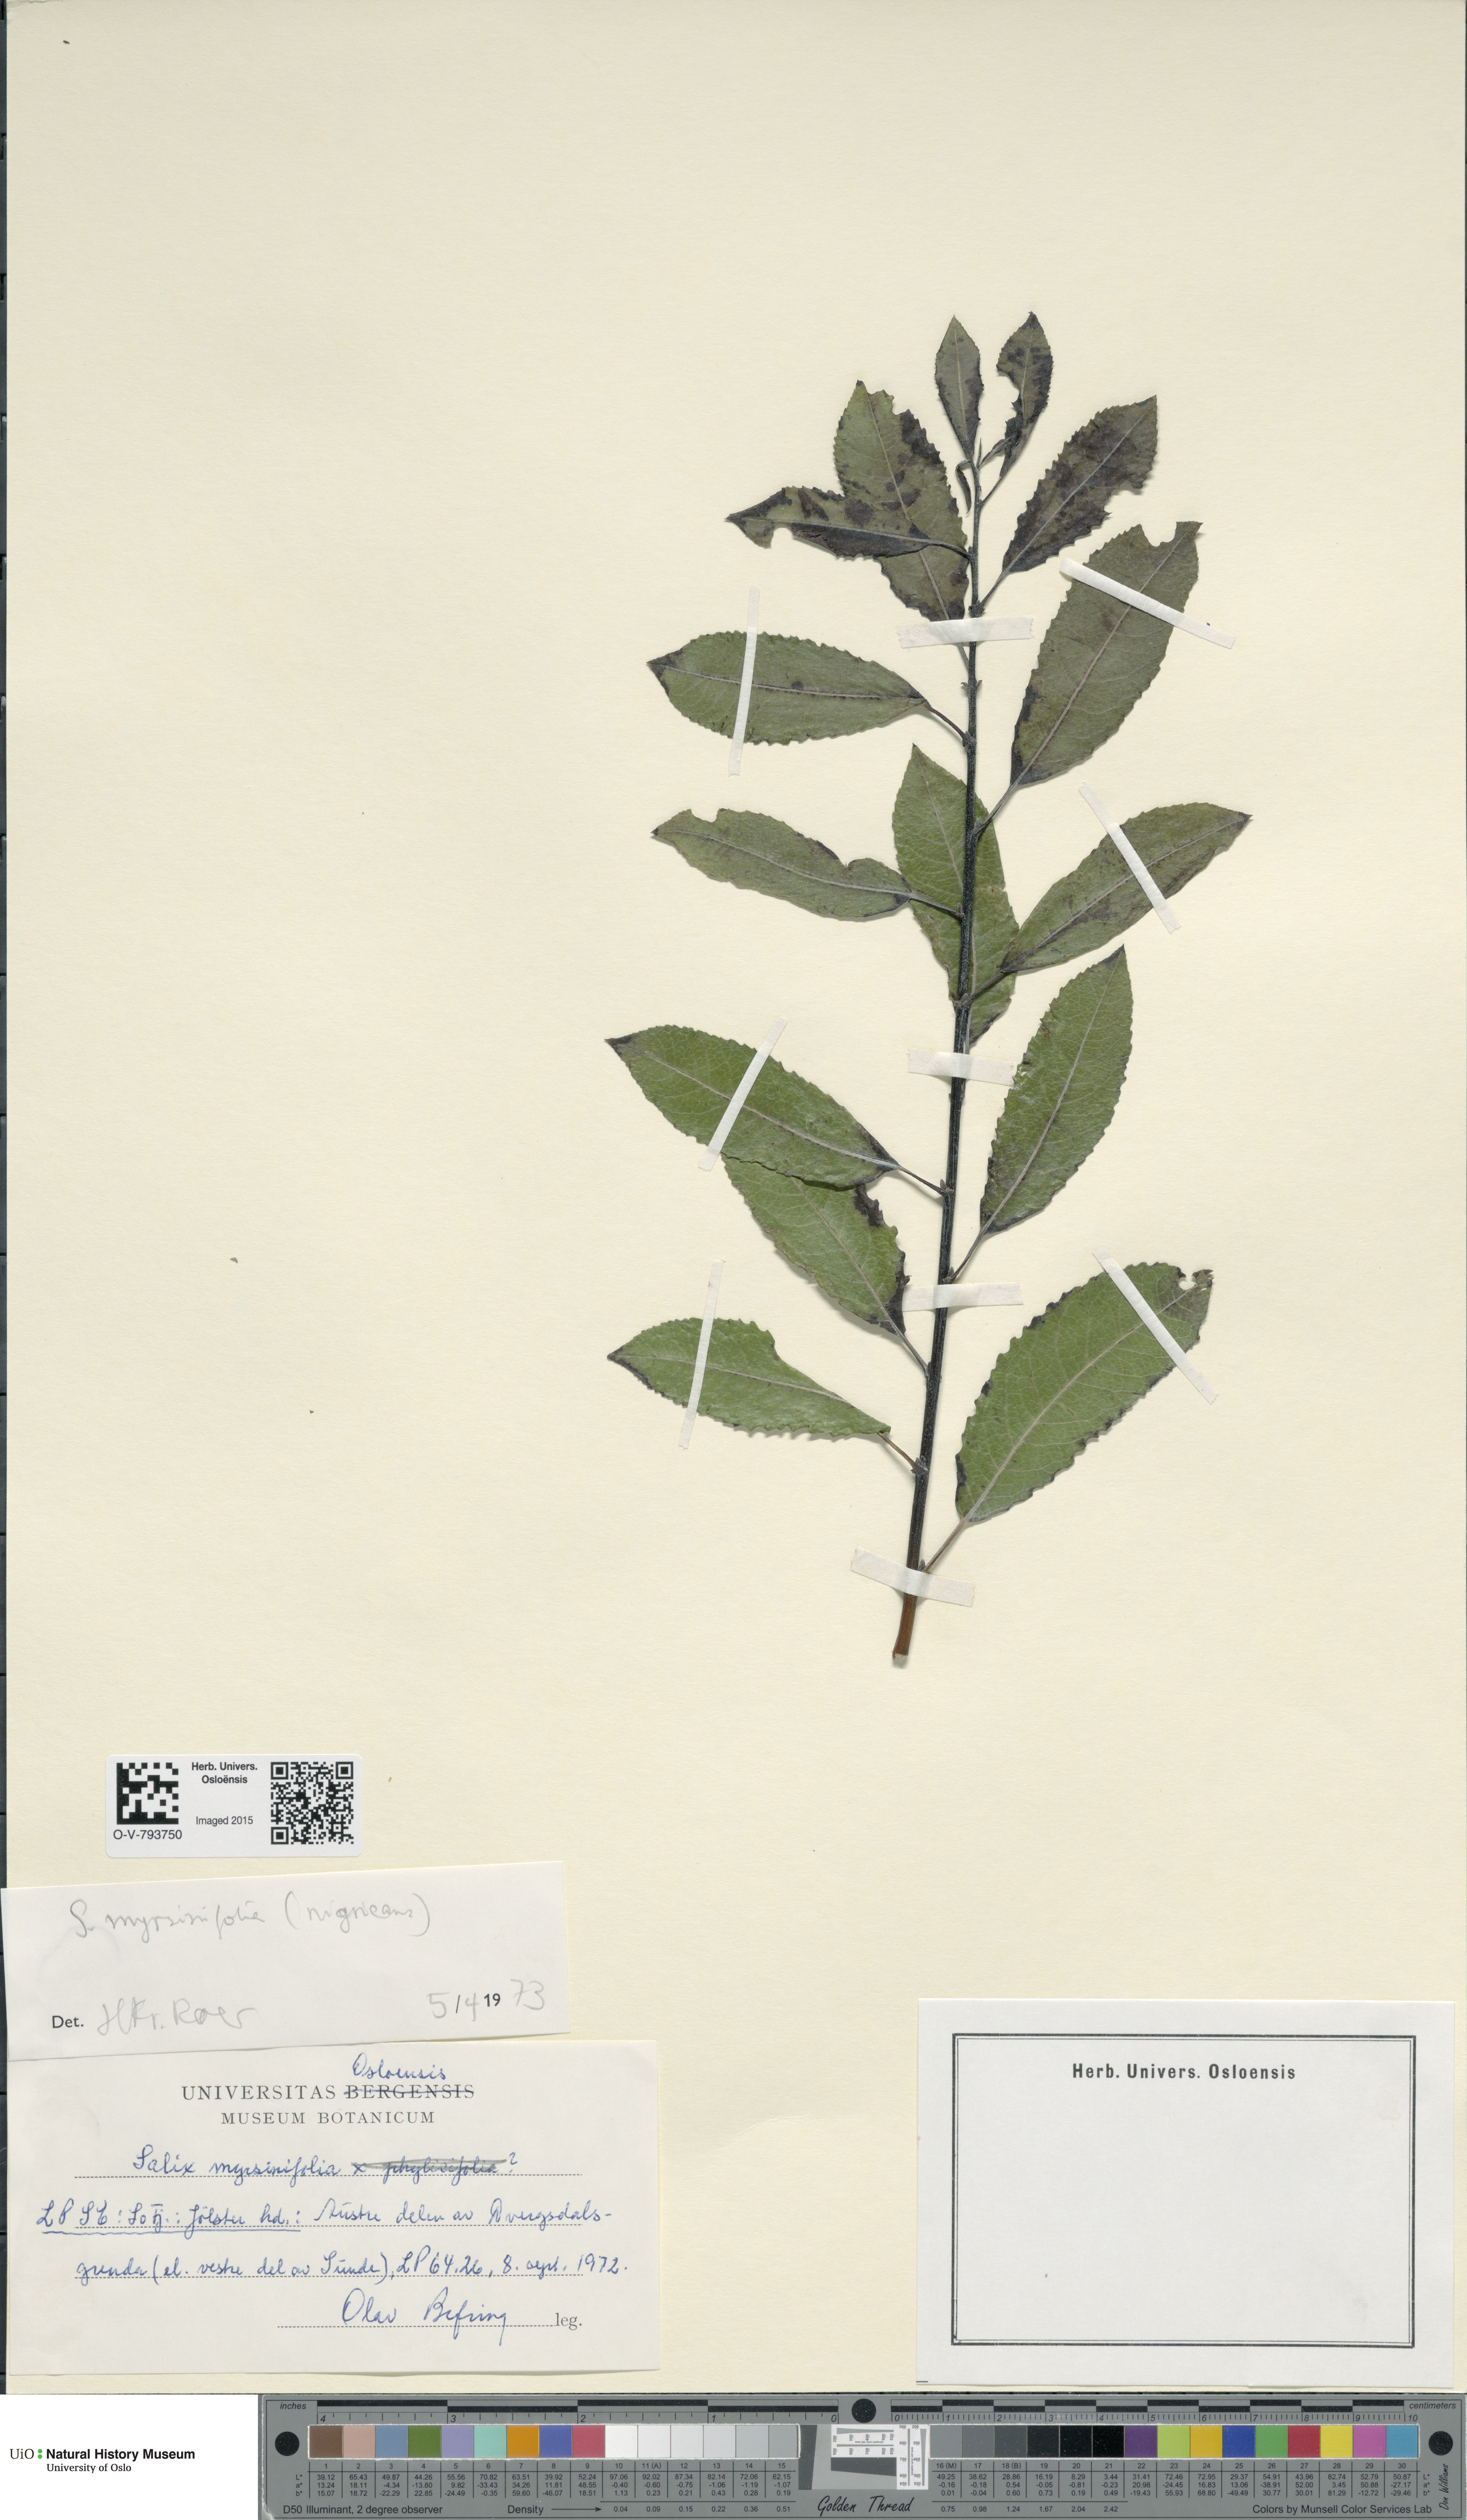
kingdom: Plantae
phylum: Tracheophyta
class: Magnoliopsida
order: Malpighiales
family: Salicaceae
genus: Salix
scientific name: Salix myrsinifolia
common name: Dark-leaved willow
